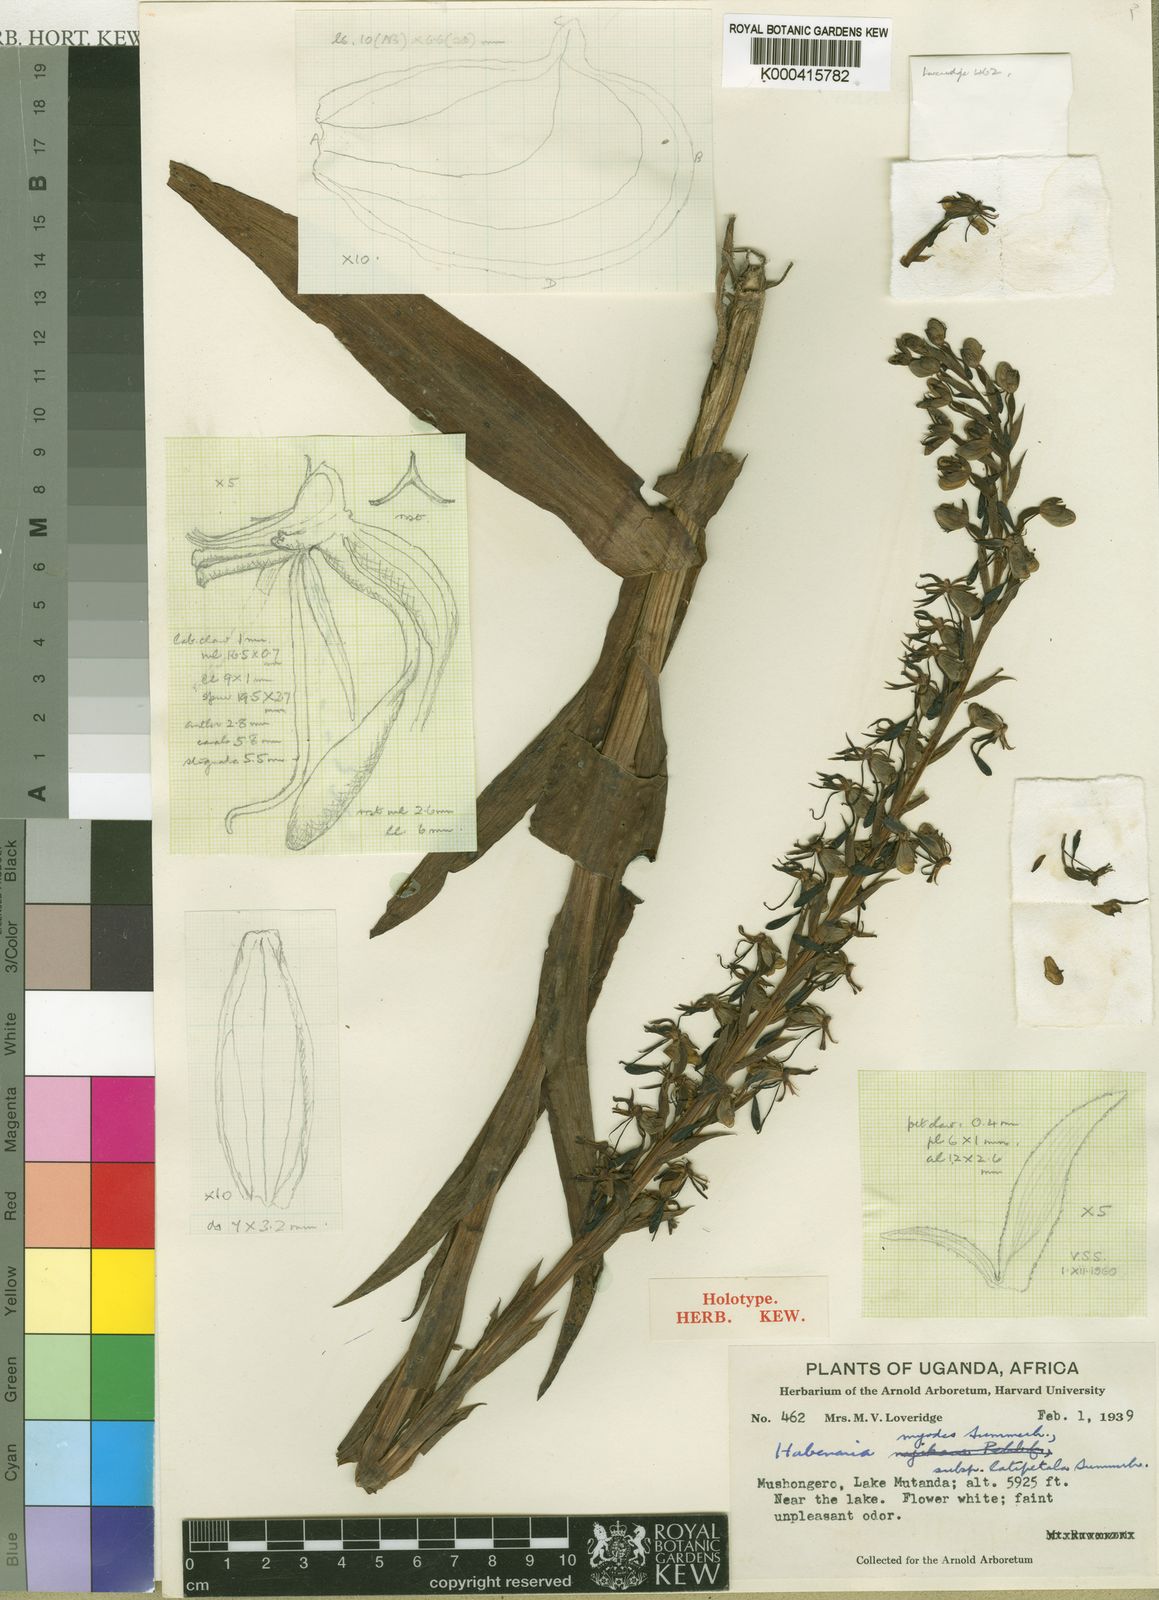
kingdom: Plantae
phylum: Tracheophyta
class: Liliopsida
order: Asparagales
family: Orchidaceae
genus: Habenaria
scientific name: Habenaria myodes
